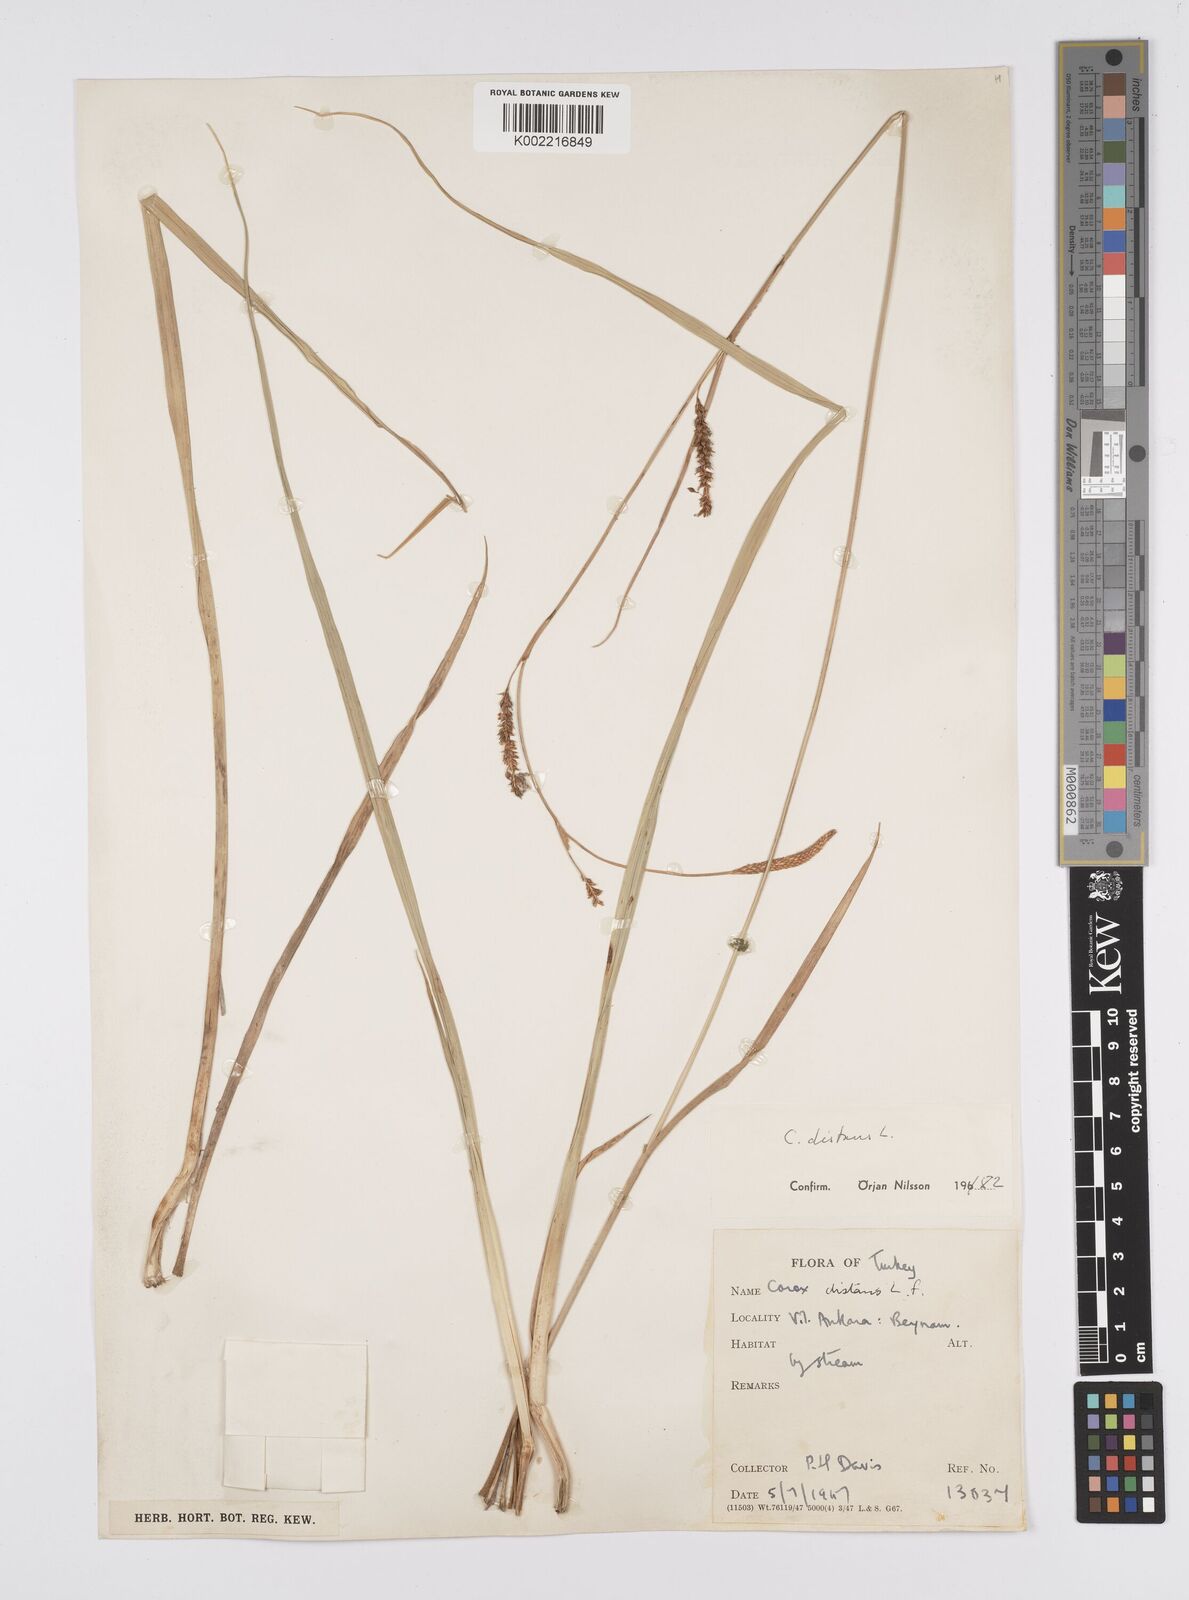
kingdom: Plantae
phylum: Tracheophyta
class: Liliopsida
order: Poales
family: Cyperaceae
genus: Carex
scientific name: Carex distans
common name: Distant sedge
